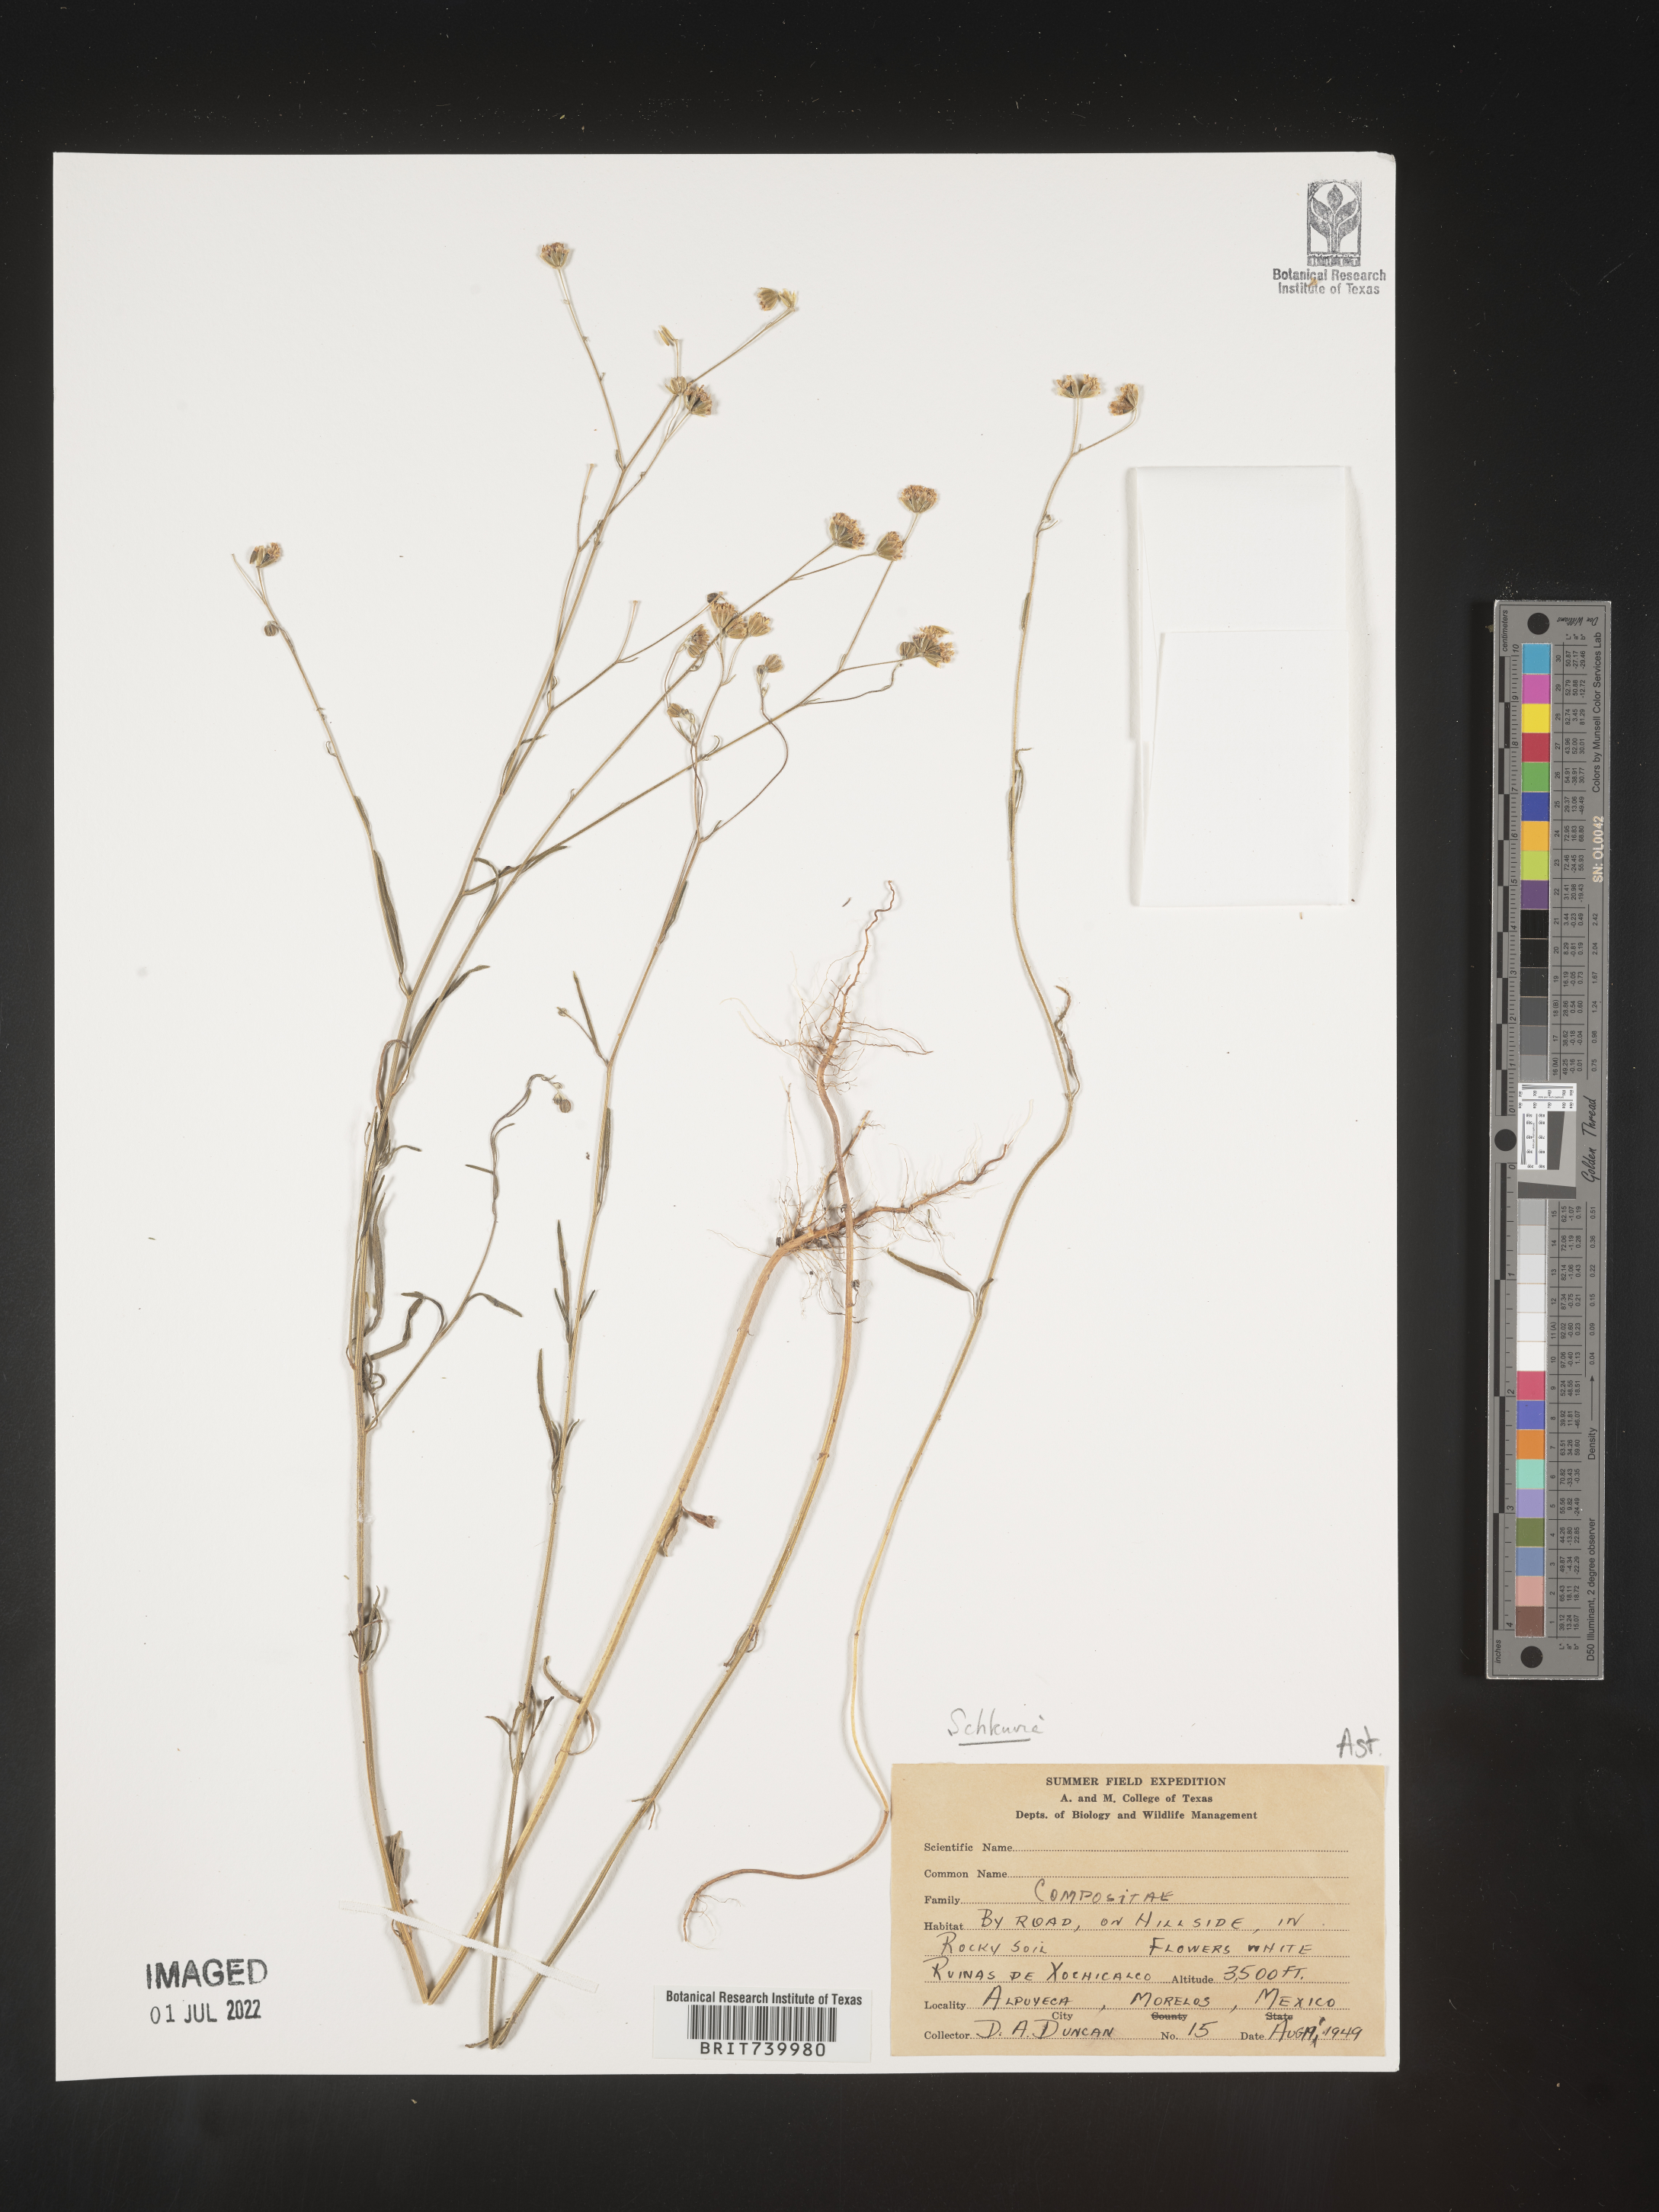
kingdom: Plantae
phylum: Tracheophyta
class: Magnoliopsida
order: Asterales
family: Asteraceae
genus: Schkuhria
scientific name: Schkuhria
